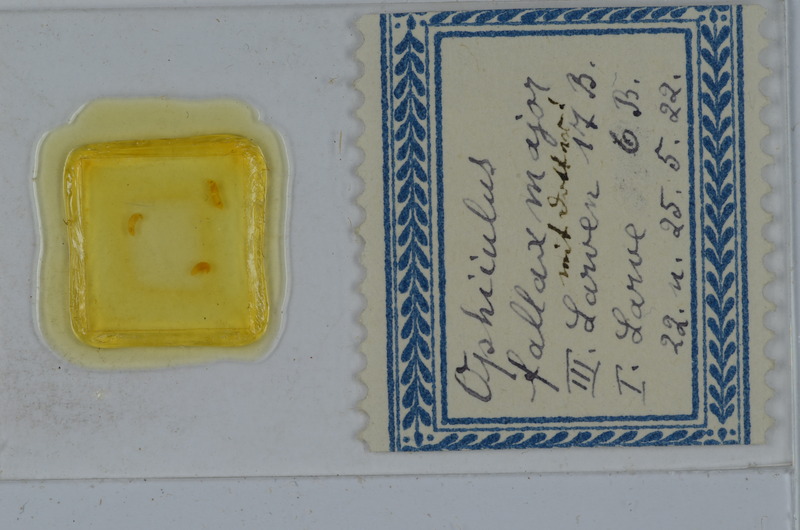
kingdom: Animalia
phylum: Arthropoda
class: Diplopoda
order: Julida
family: Julidae
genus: Ophyiulus
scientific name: Ophyiulus pilosus
